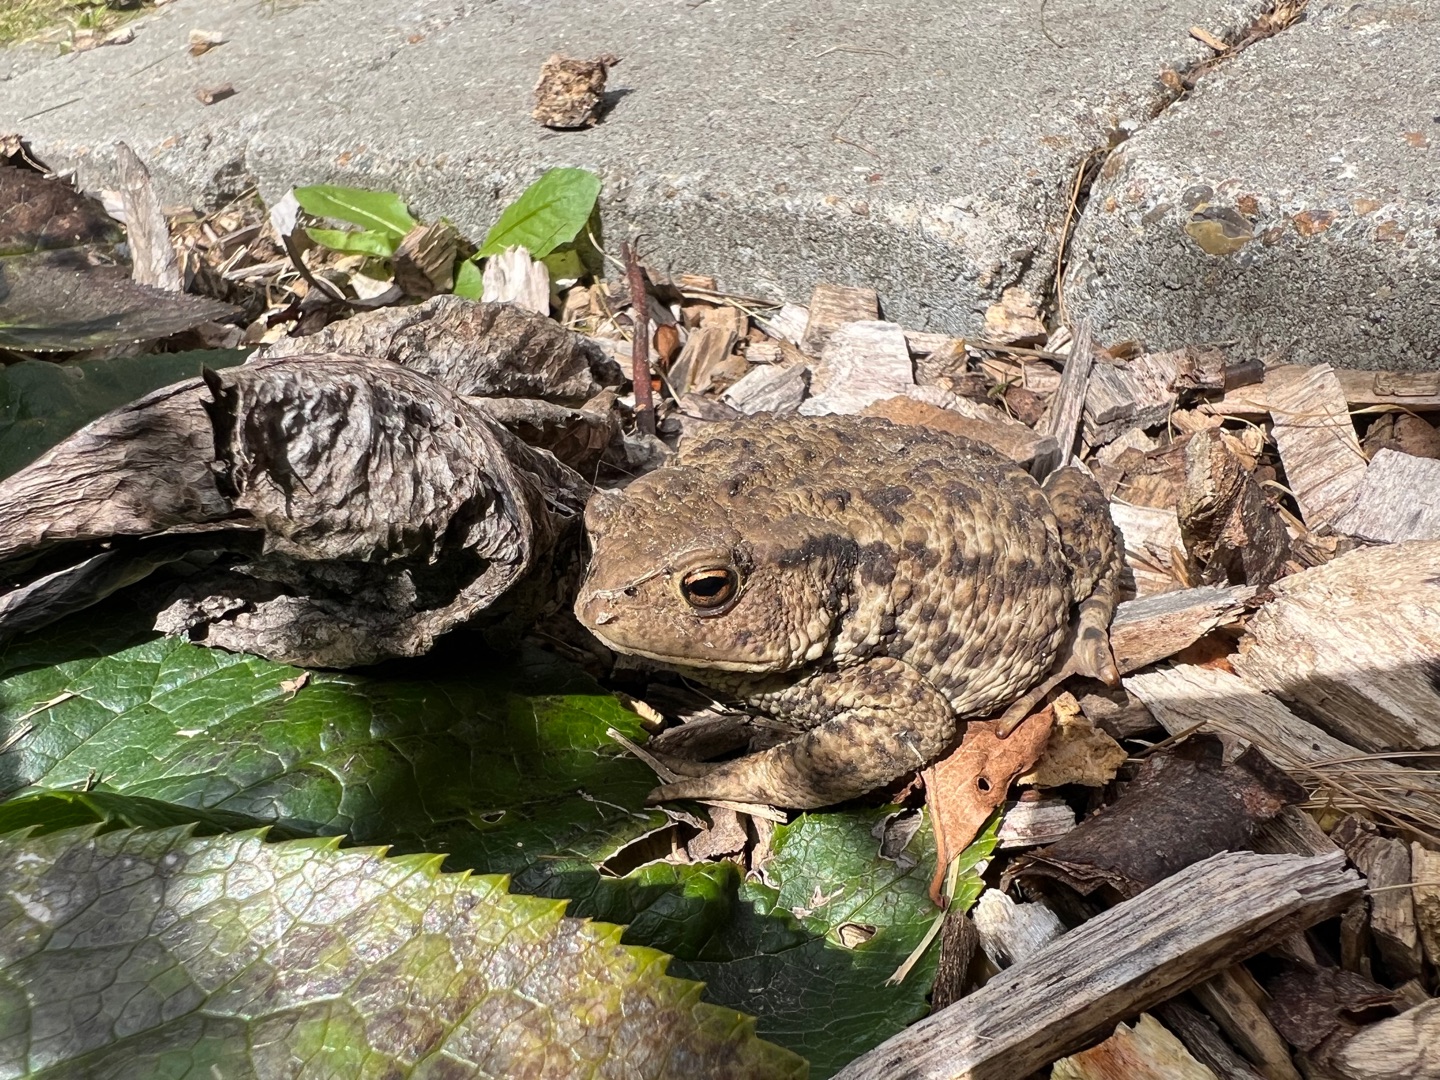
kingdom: Animalia
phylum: Chordata
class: Amphibia
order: Anura
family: Bufonidae
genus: Bufo
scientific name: Bufo bufo
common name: Skrubtudse
